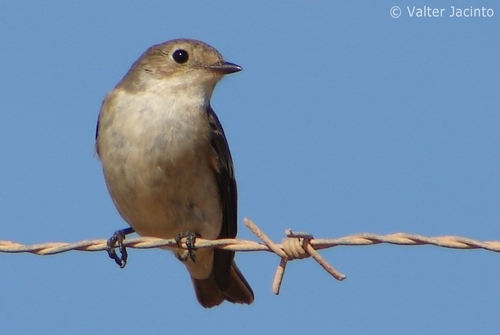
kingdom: Animalia
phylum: Chordata
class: Aves
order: Passeriformes
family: Muscicapidae
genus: Ficedula
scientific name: Ficedula hypoleuca
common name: European pied flycatcher
